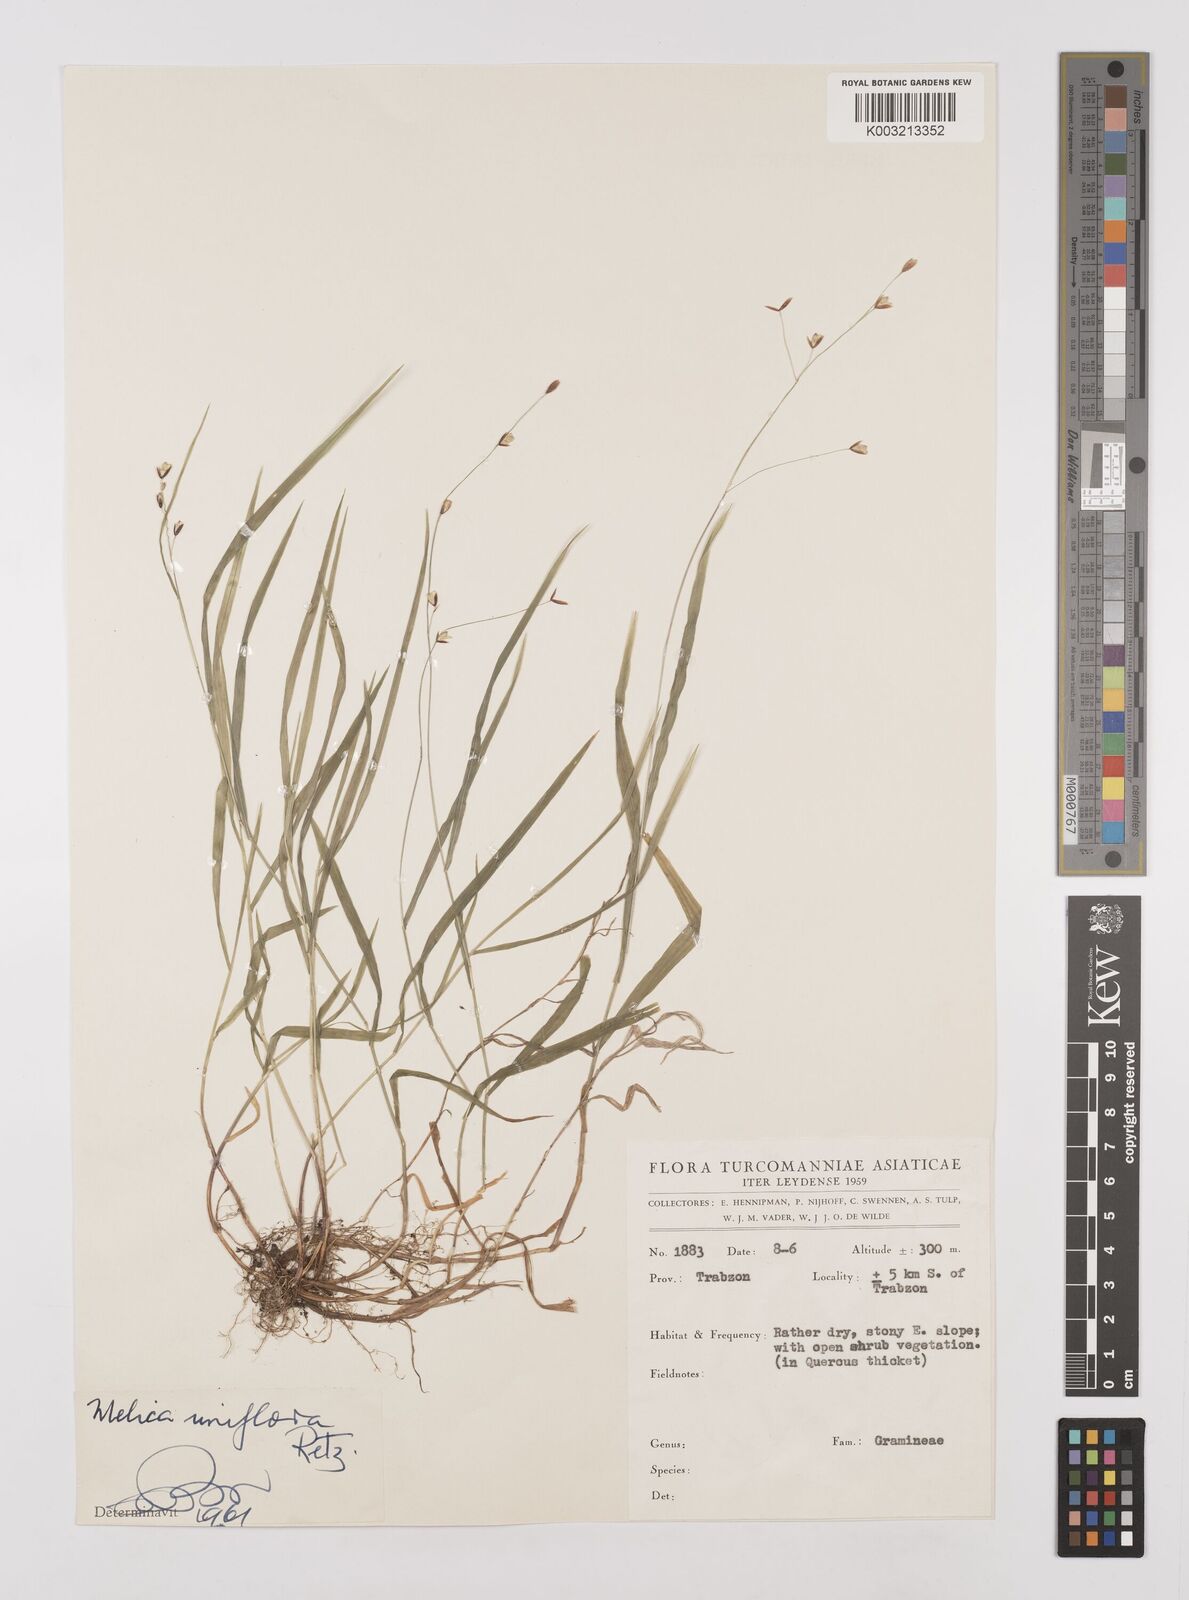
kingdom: Plantae
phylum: Tracheophyta
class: Liliopsida
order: Poales
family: Poaceae
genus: Melica
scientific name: Melica uniflora
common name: Wood melick
